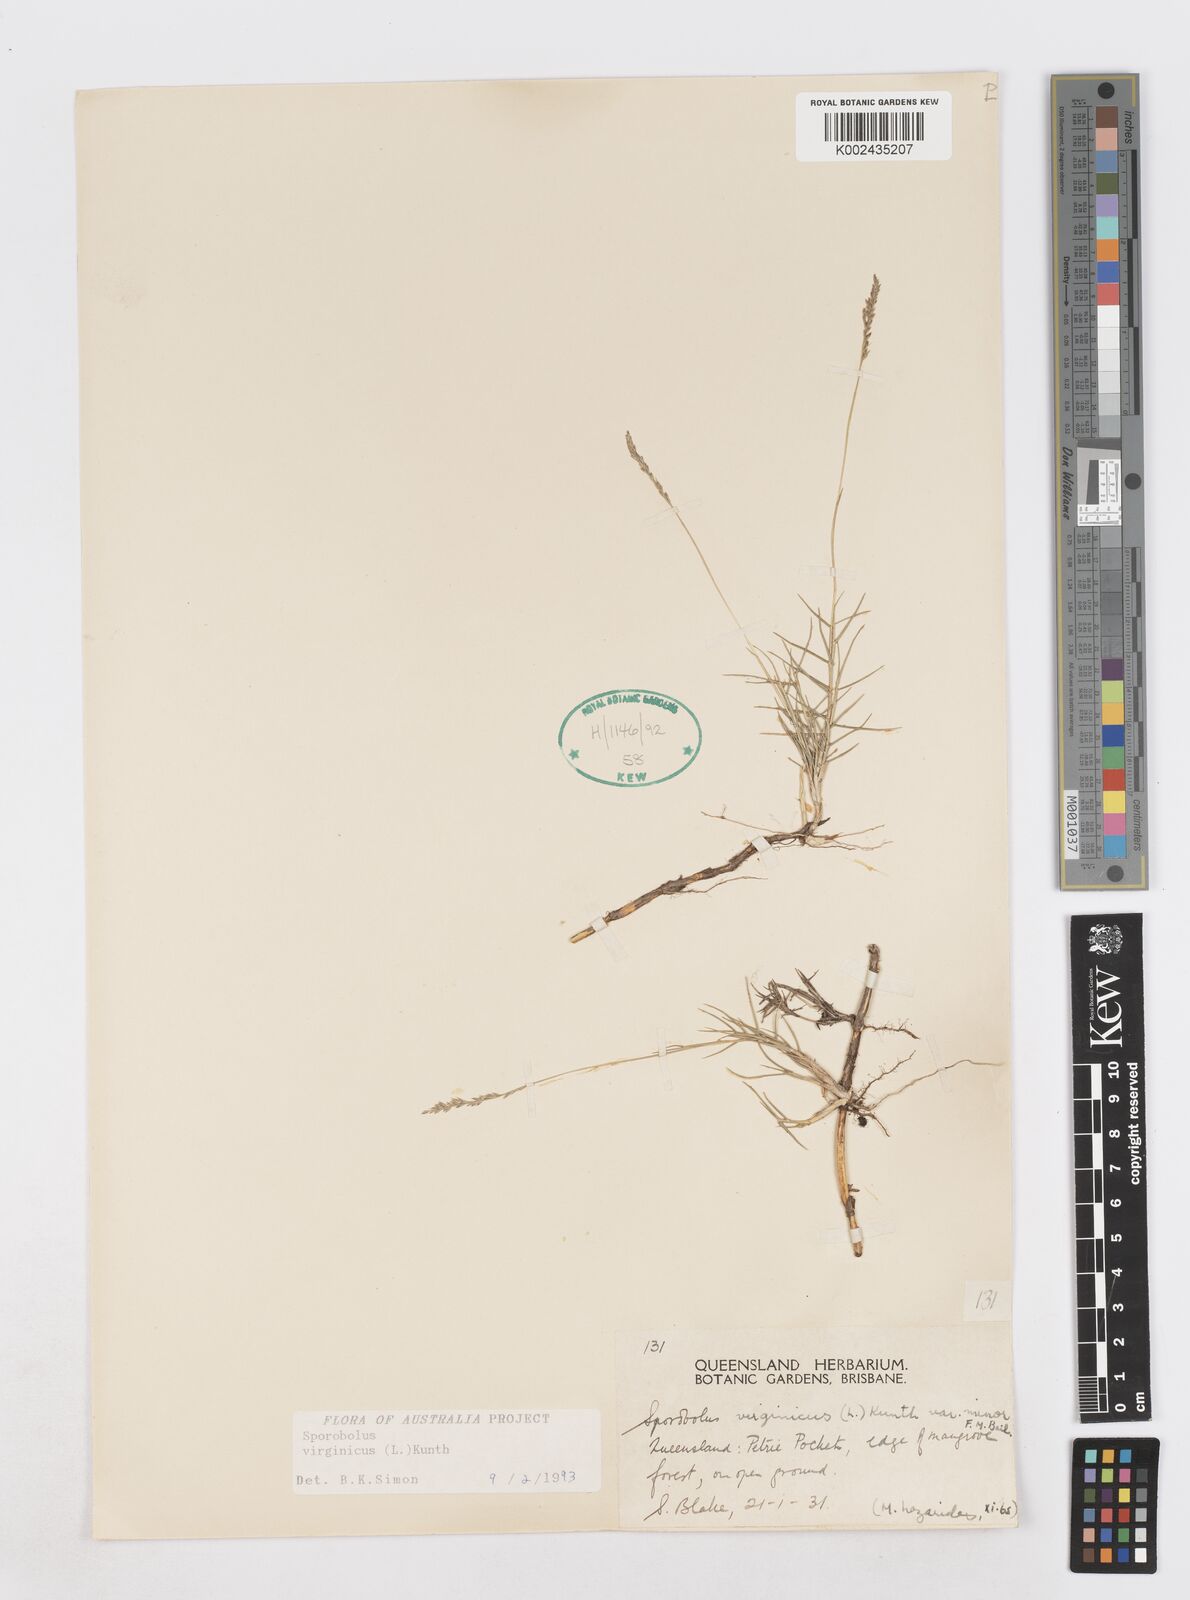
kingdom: Plantae
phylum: Tracheophyta
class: Liliopsida
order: Poales
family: Poaceae
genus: Sporobolus
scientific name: Sporobolus virginicus
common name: Beach dropseed
